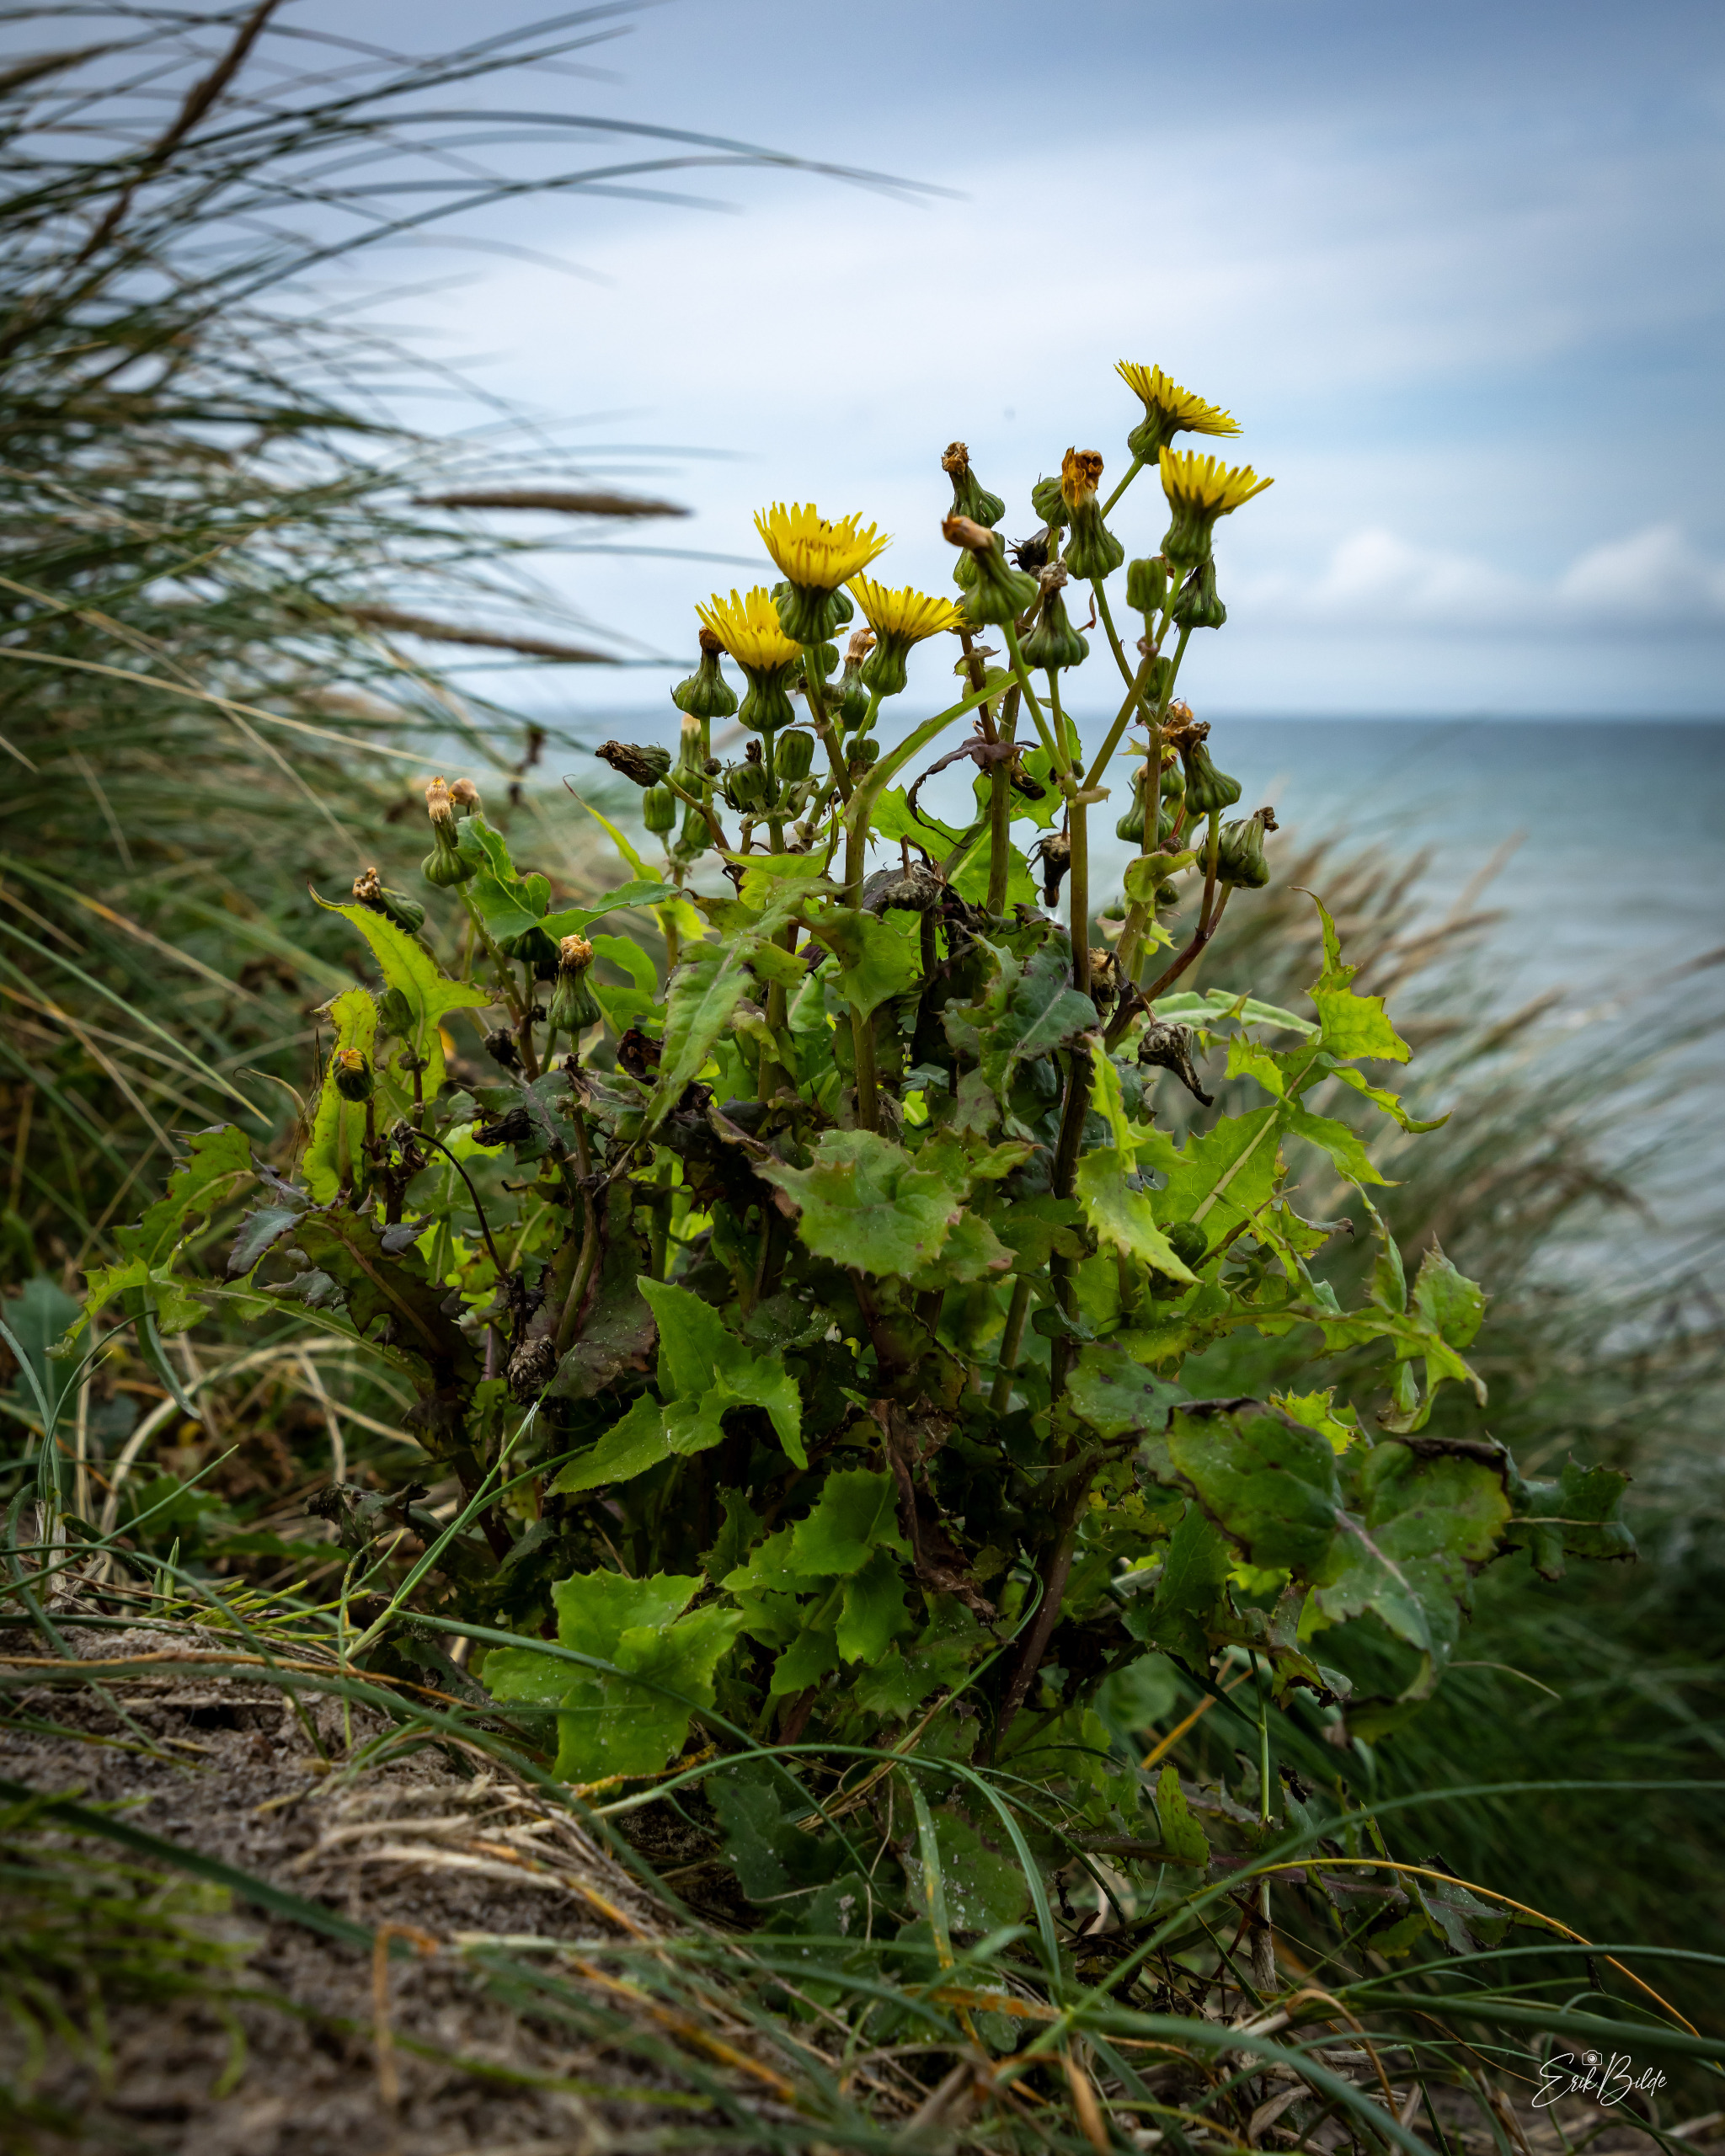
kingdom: Plantae
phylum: Tracheophyta
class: Magnoliopsida
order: Asterales
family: Asteraceae
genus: Sonchus
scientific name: Sonchus oleraceus
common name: Almindelig svinemælk
